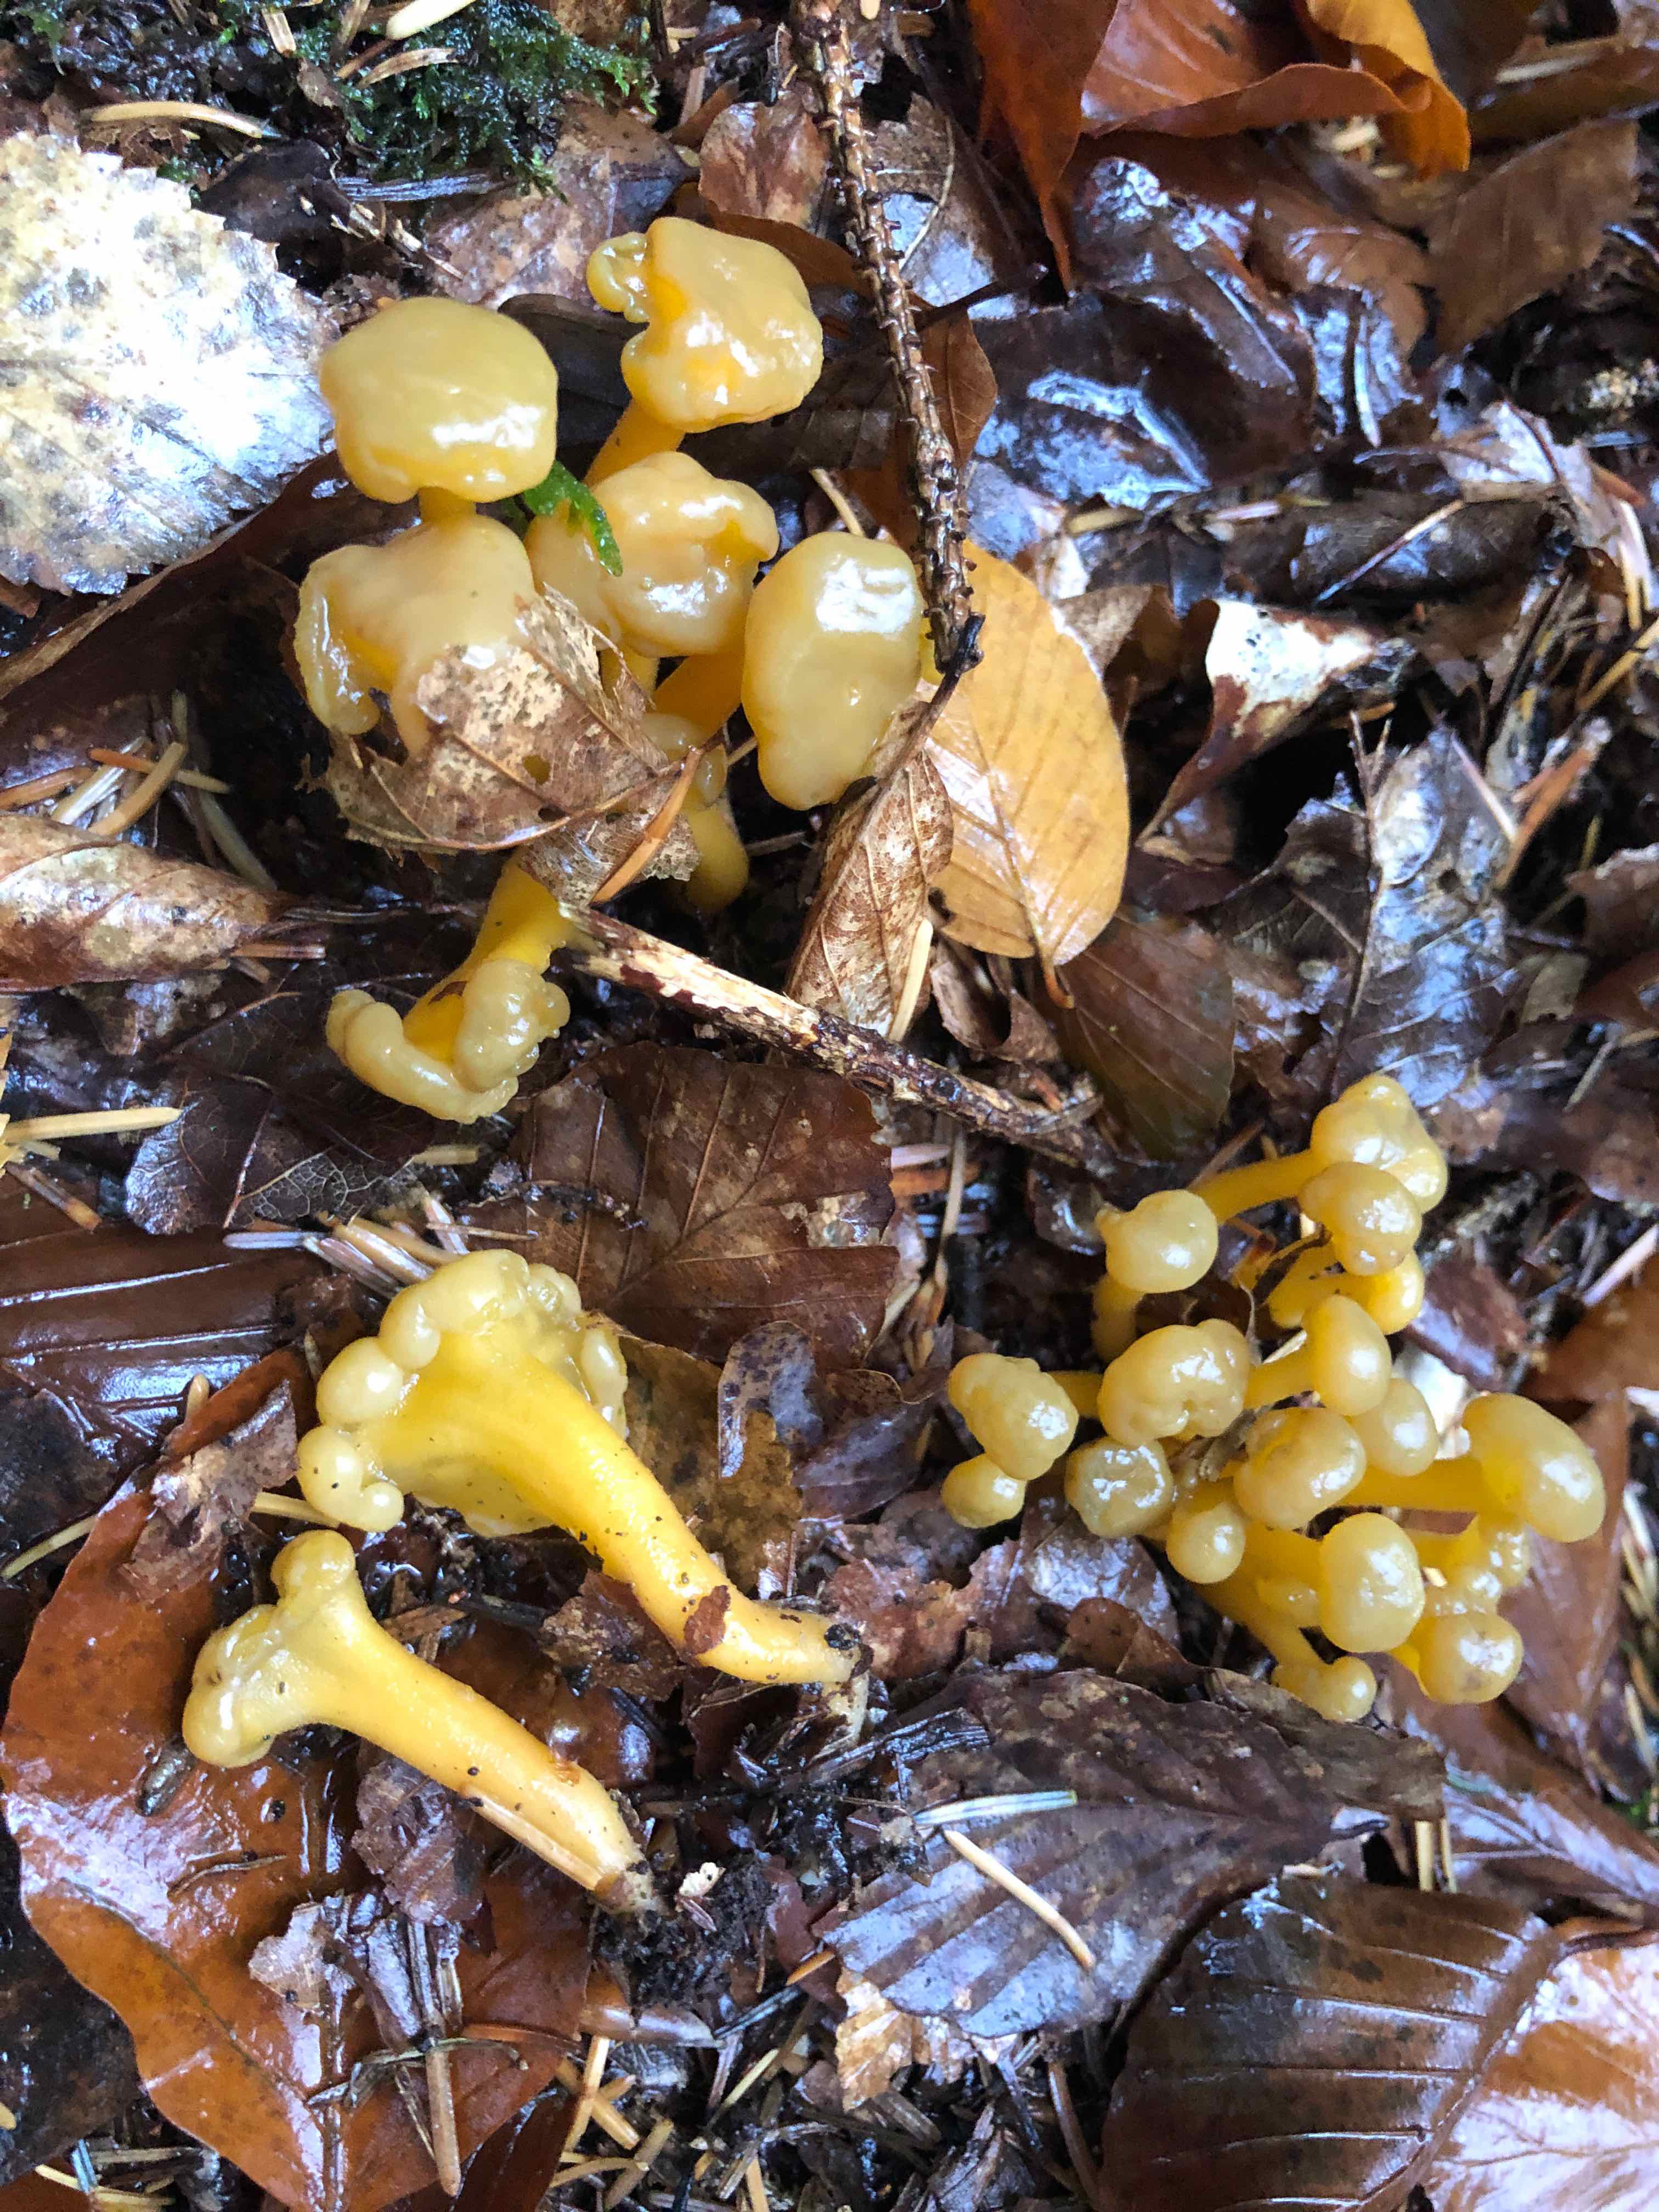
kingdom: Fungi
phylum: Ascomycota
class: Leotiomycetes
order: Leotiales
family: Leotiaceae
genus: Leotia
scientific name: Leotia lubrica
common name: ravsvamp
